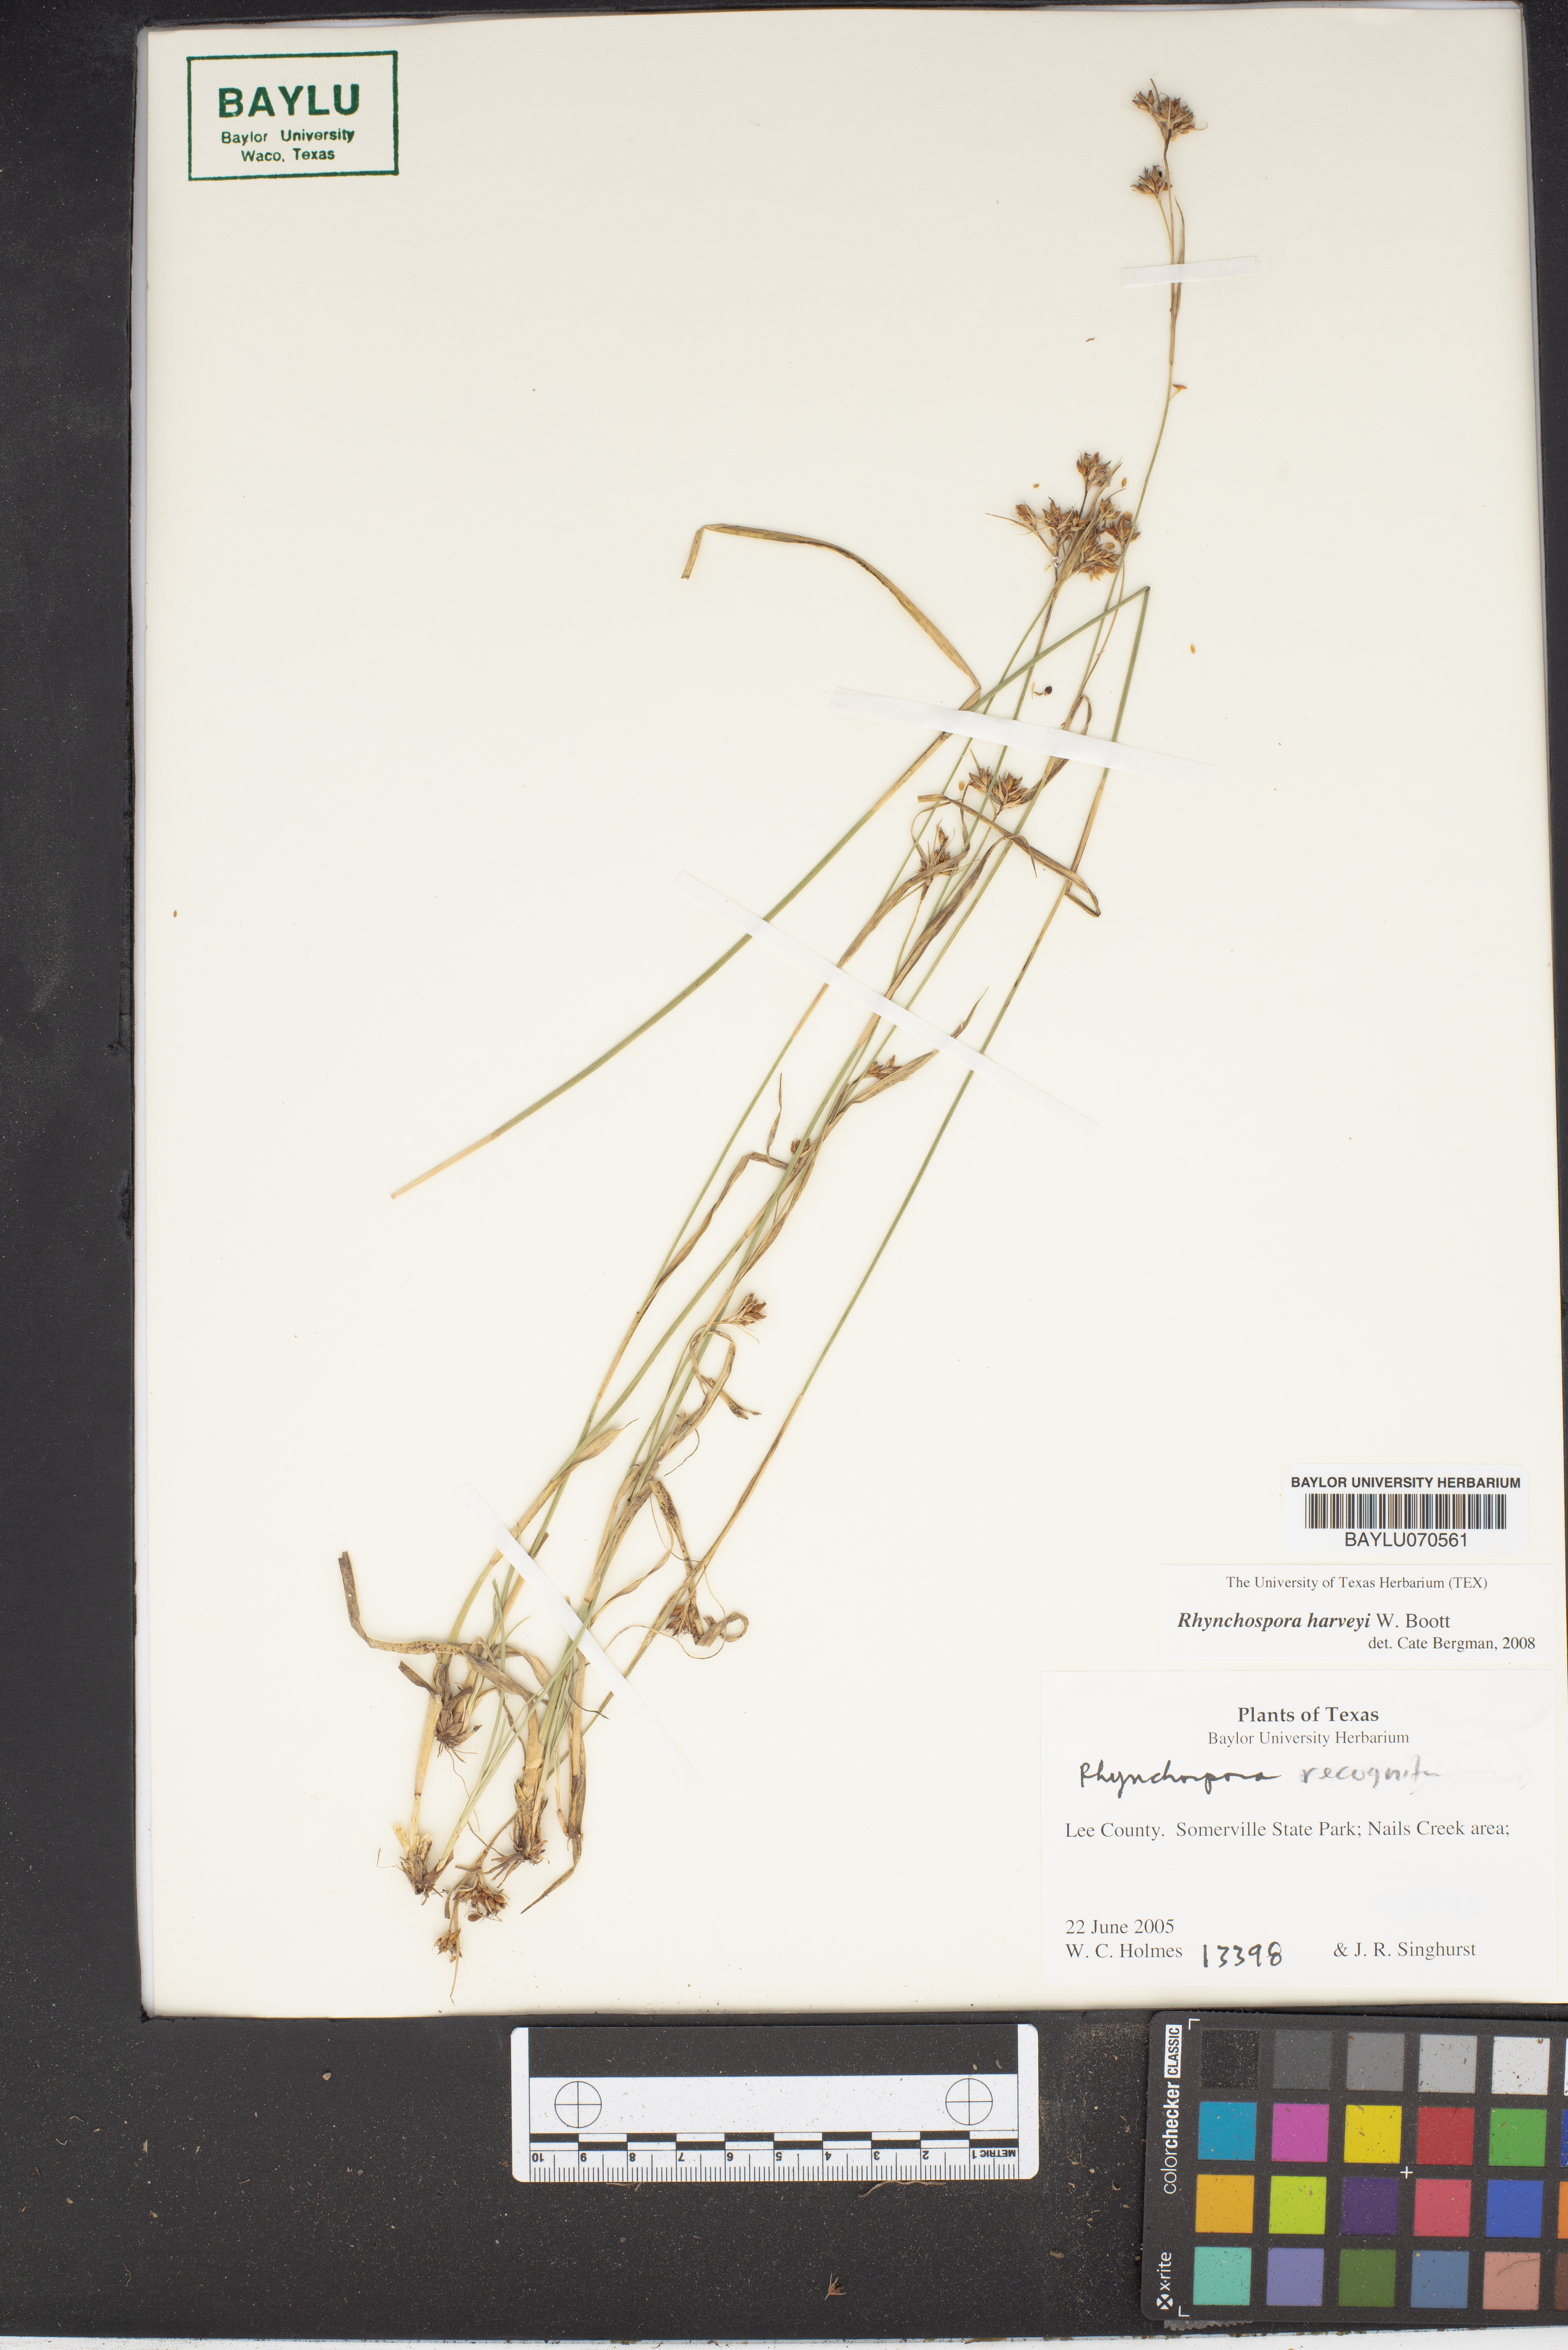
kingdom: Plantae
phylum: Tracheophyta
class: Liliopsida
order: Poales
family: Cyperaceae
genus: Rhynchospora
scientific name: Rhynchospora harveyi
